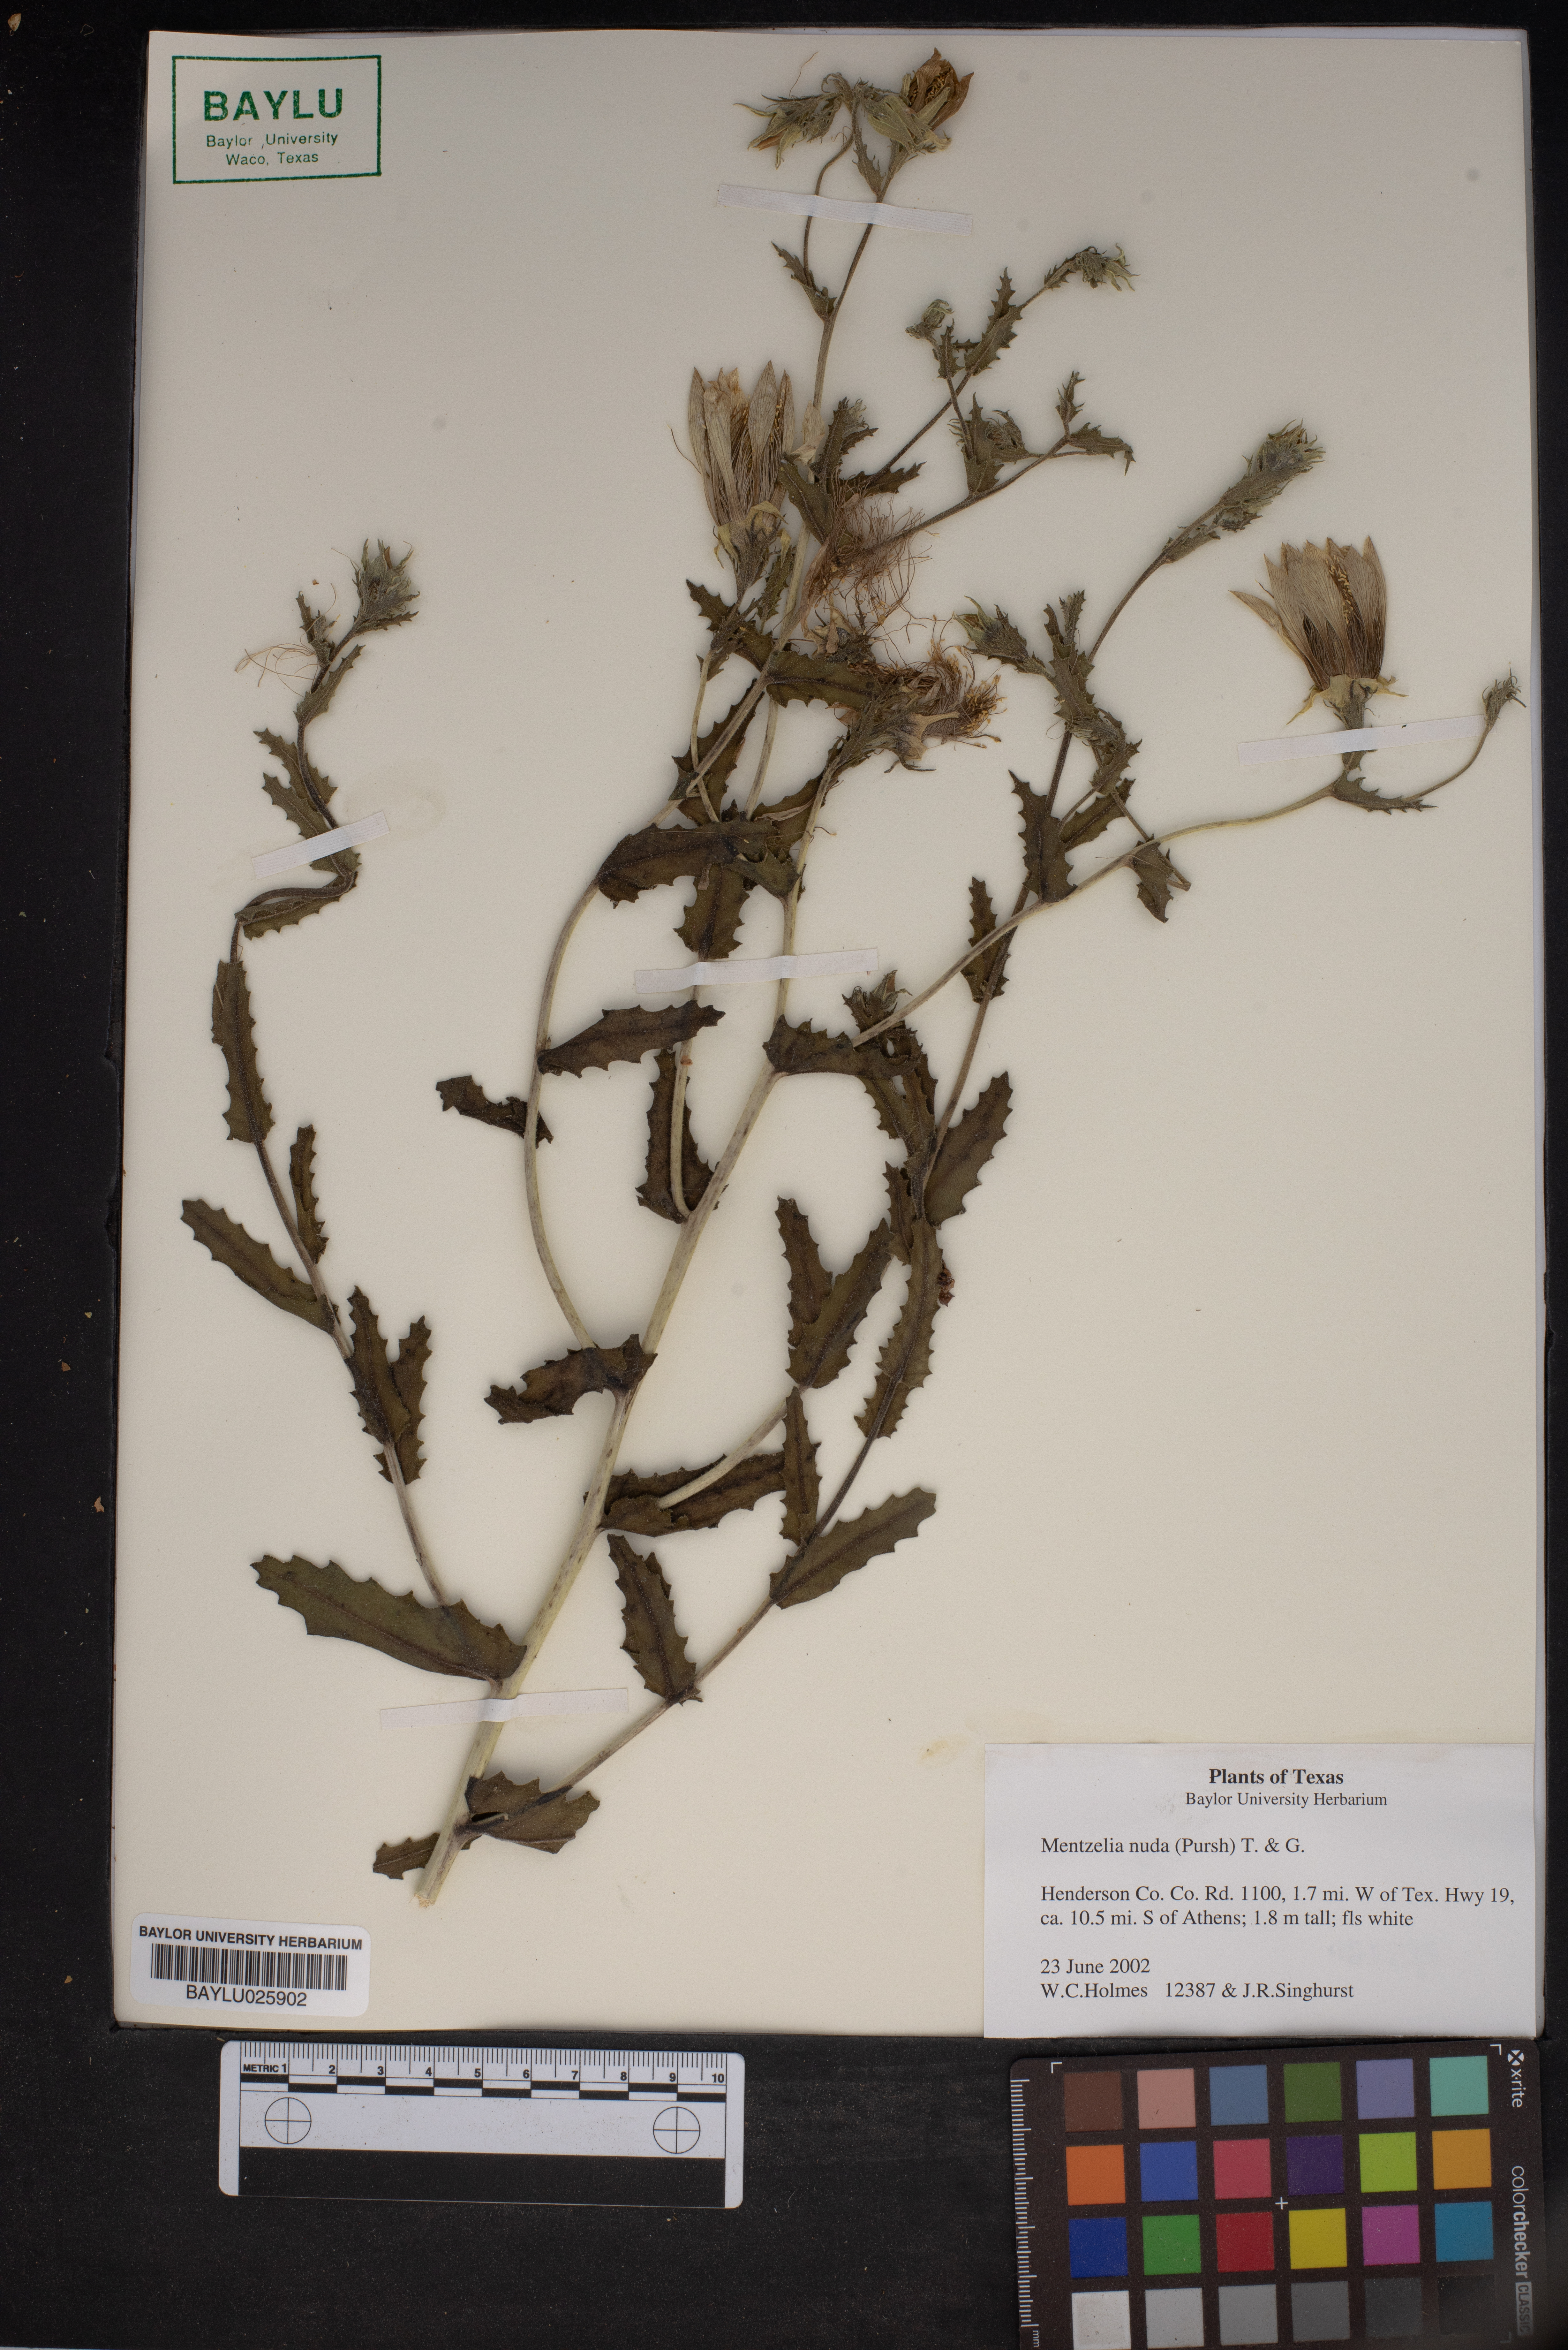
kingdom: Plantae
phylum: Tracheophyta
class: Magnoliopsida
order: Cornales
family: Loasaceae
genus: Mentzelia
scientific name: Mentzelia nuda
